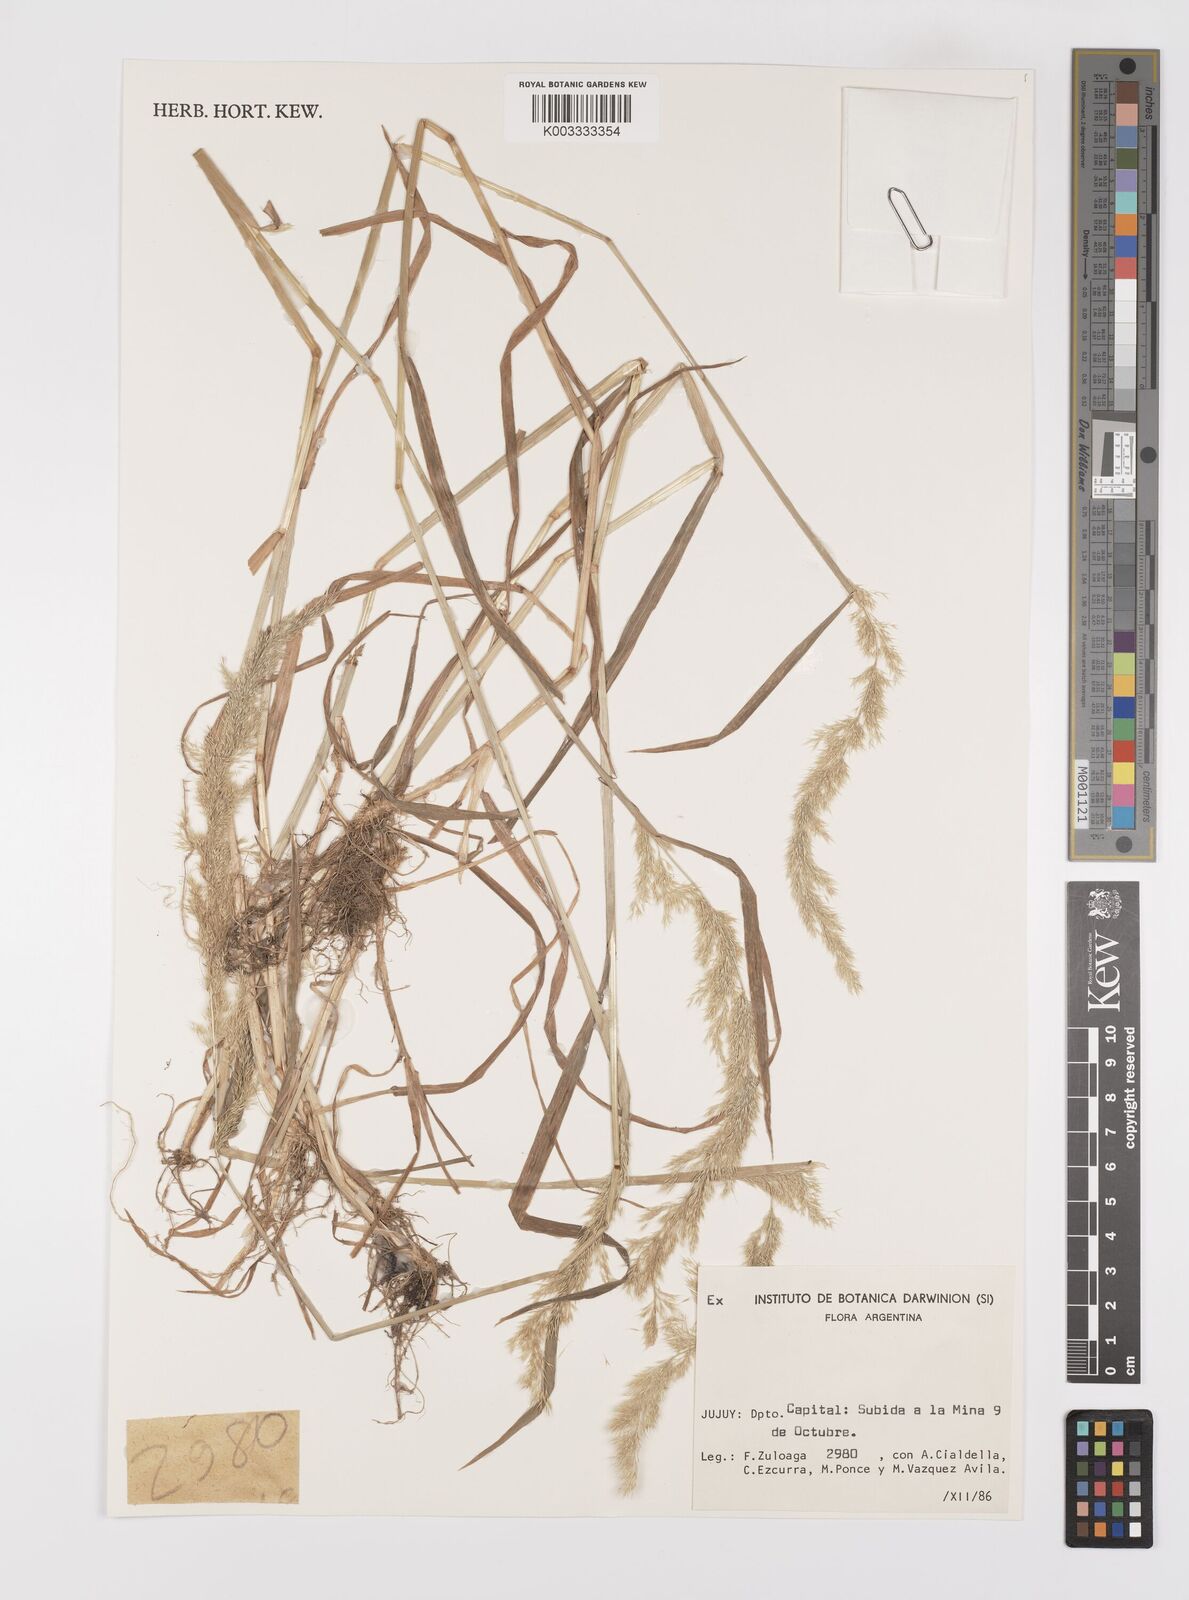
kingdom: Plantae
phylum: Tracheophyta
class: Liliopsida
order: Poales
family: Poaceae
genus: Polypogon
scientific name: Polypogon
